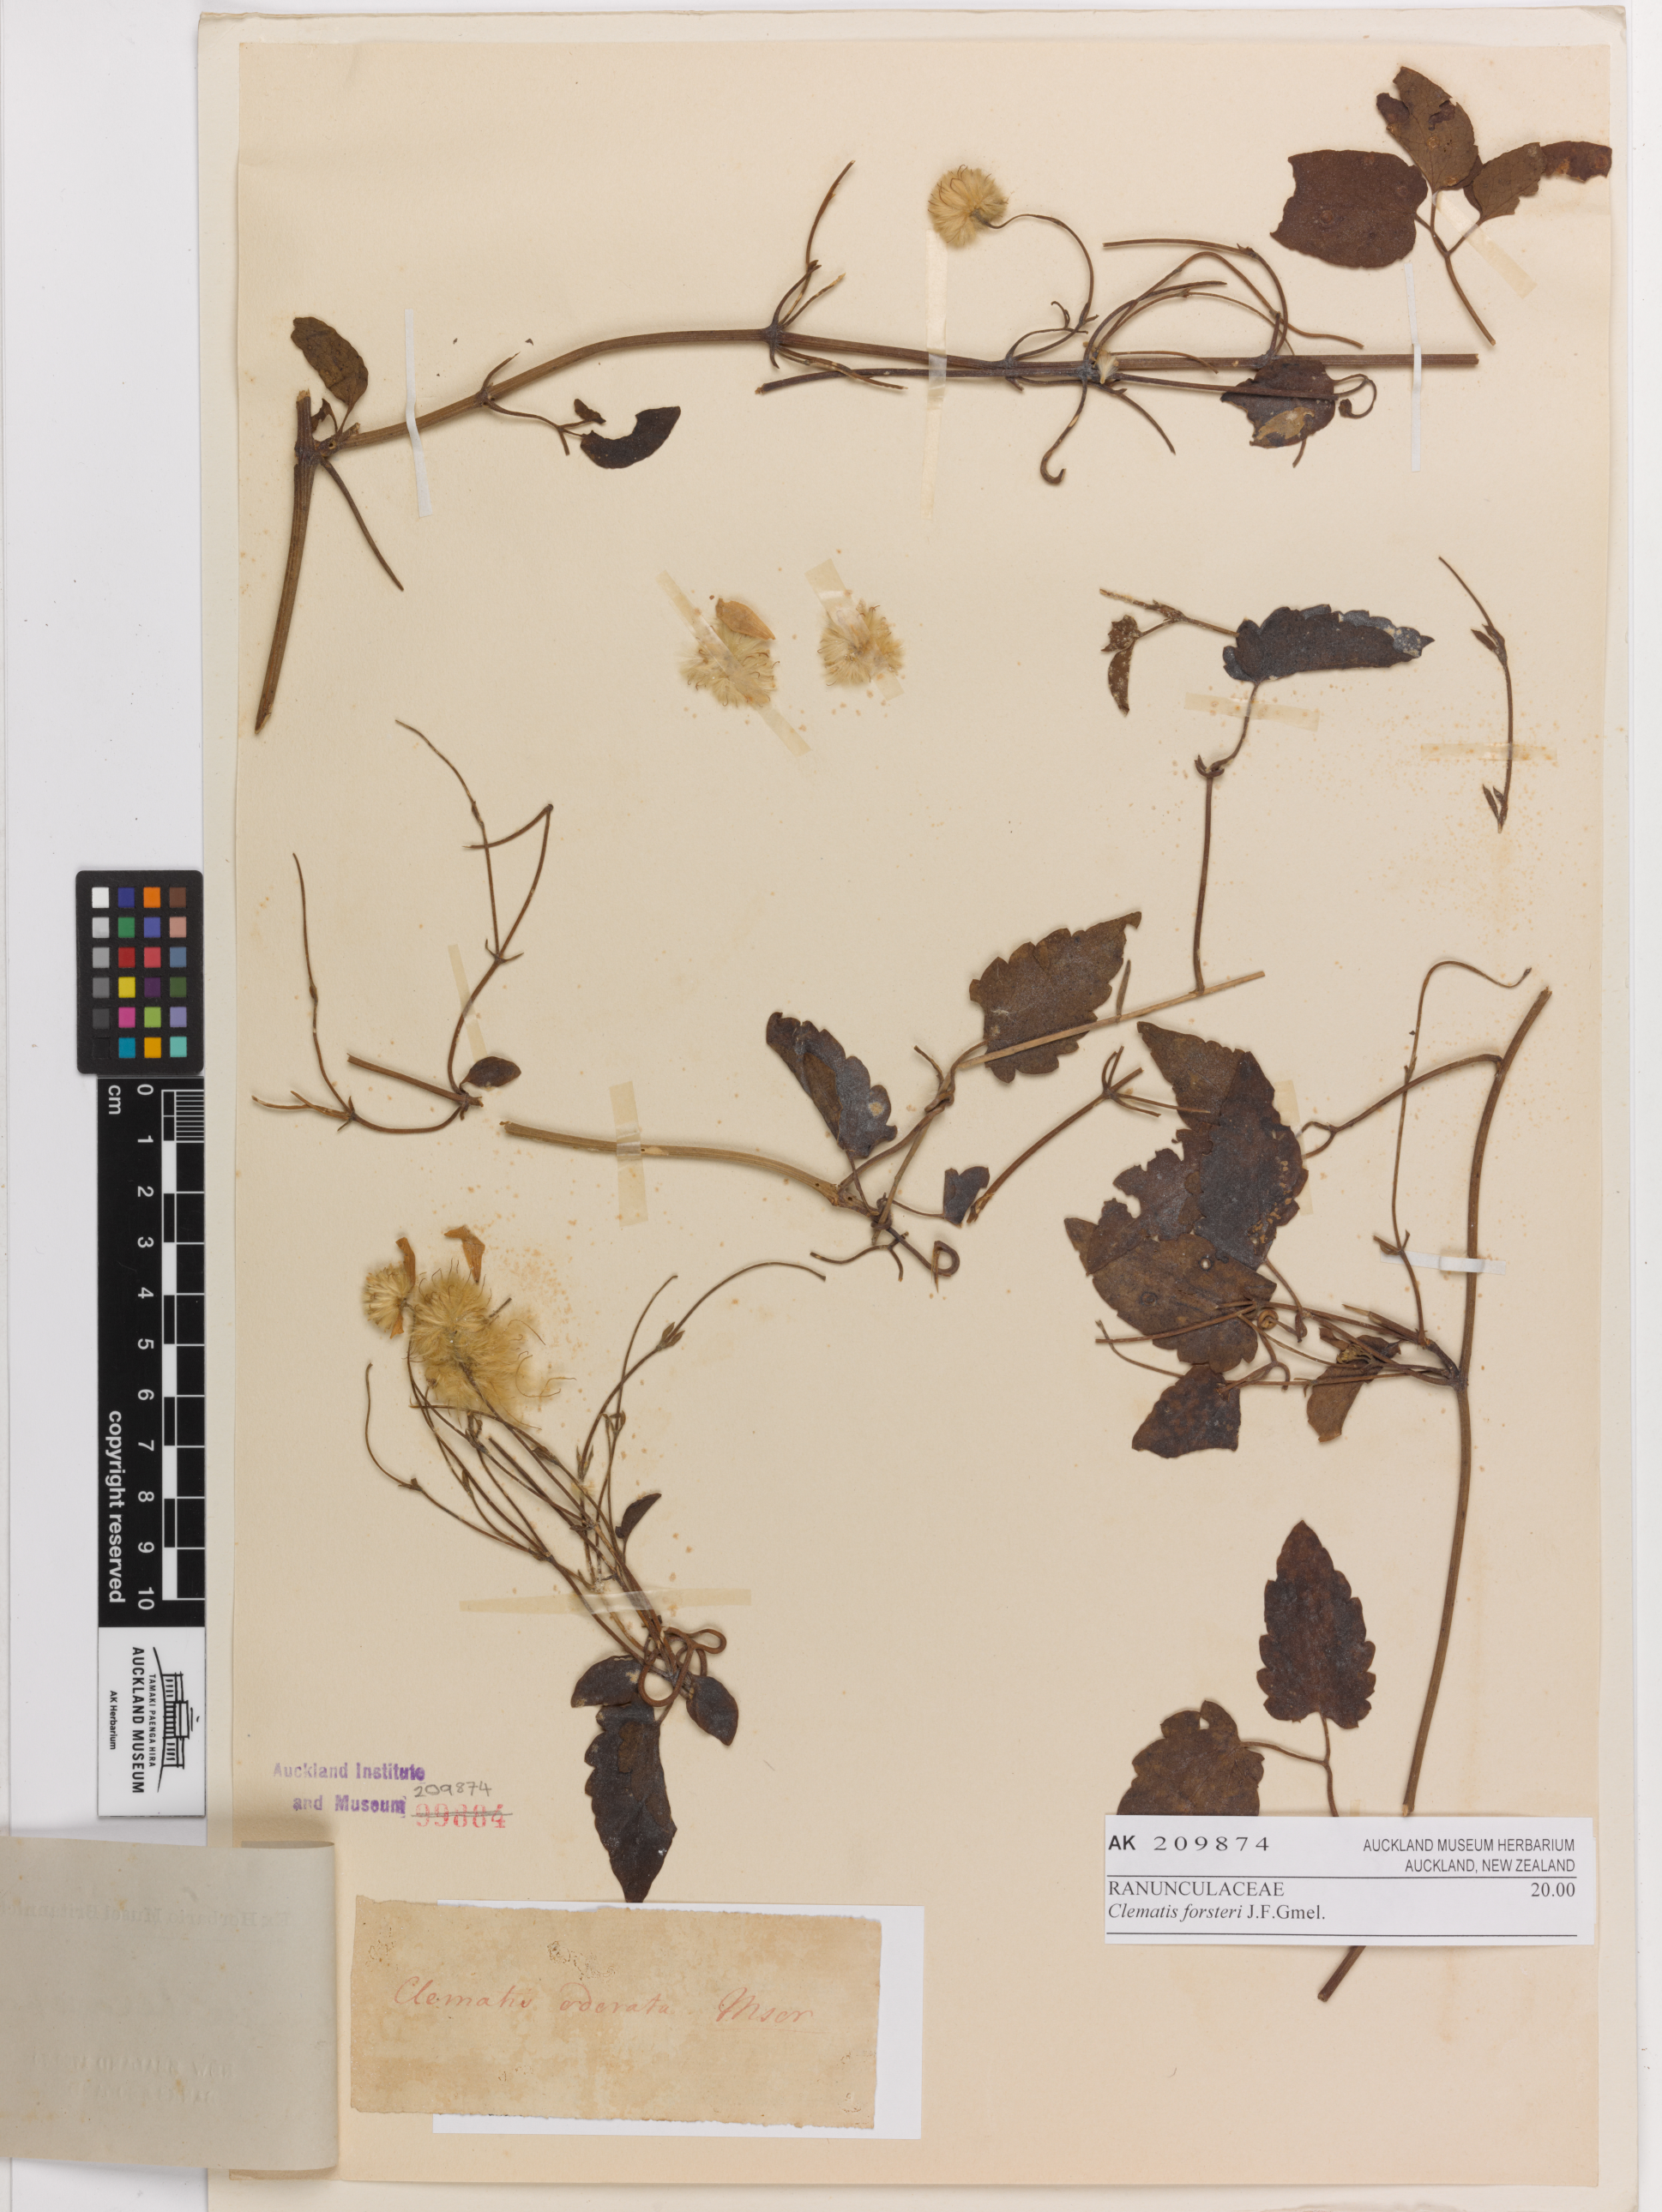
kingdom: Plantae
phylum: Tracheophyta
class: Magnoliopsida
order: Ranunculales
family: Ranunculaceae
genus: Clematis
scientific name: Clematis forsteri
